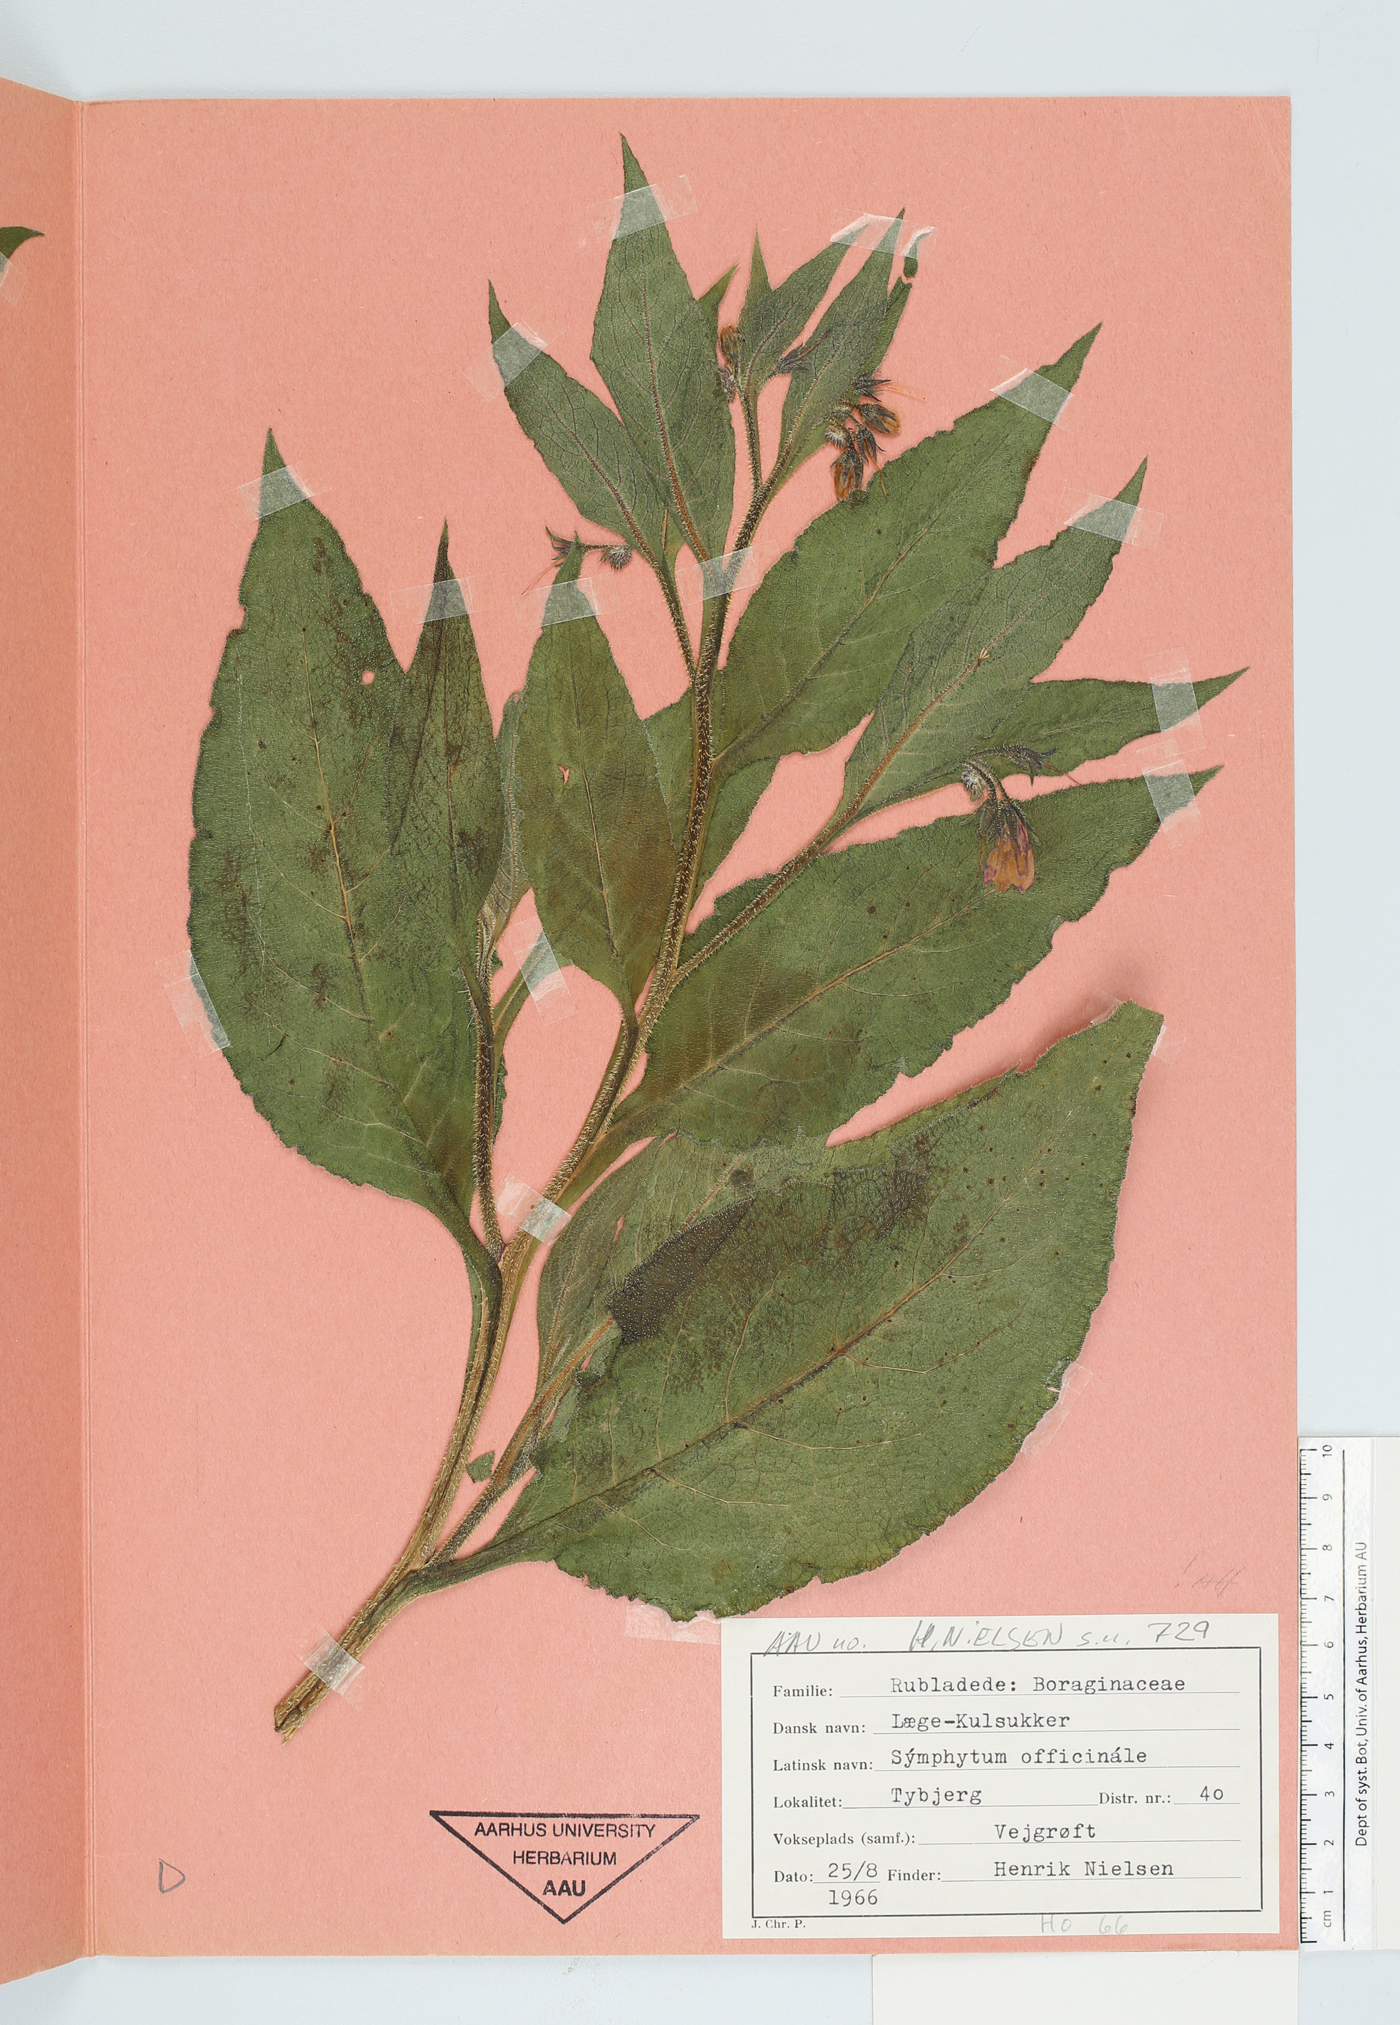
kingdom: Plantae
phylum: Tracheophyta
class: Magnoliopsida
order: Boraginales
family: Boraginaceae
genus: Symphytum
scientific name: Symphytum officinale
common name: Common comfrey
